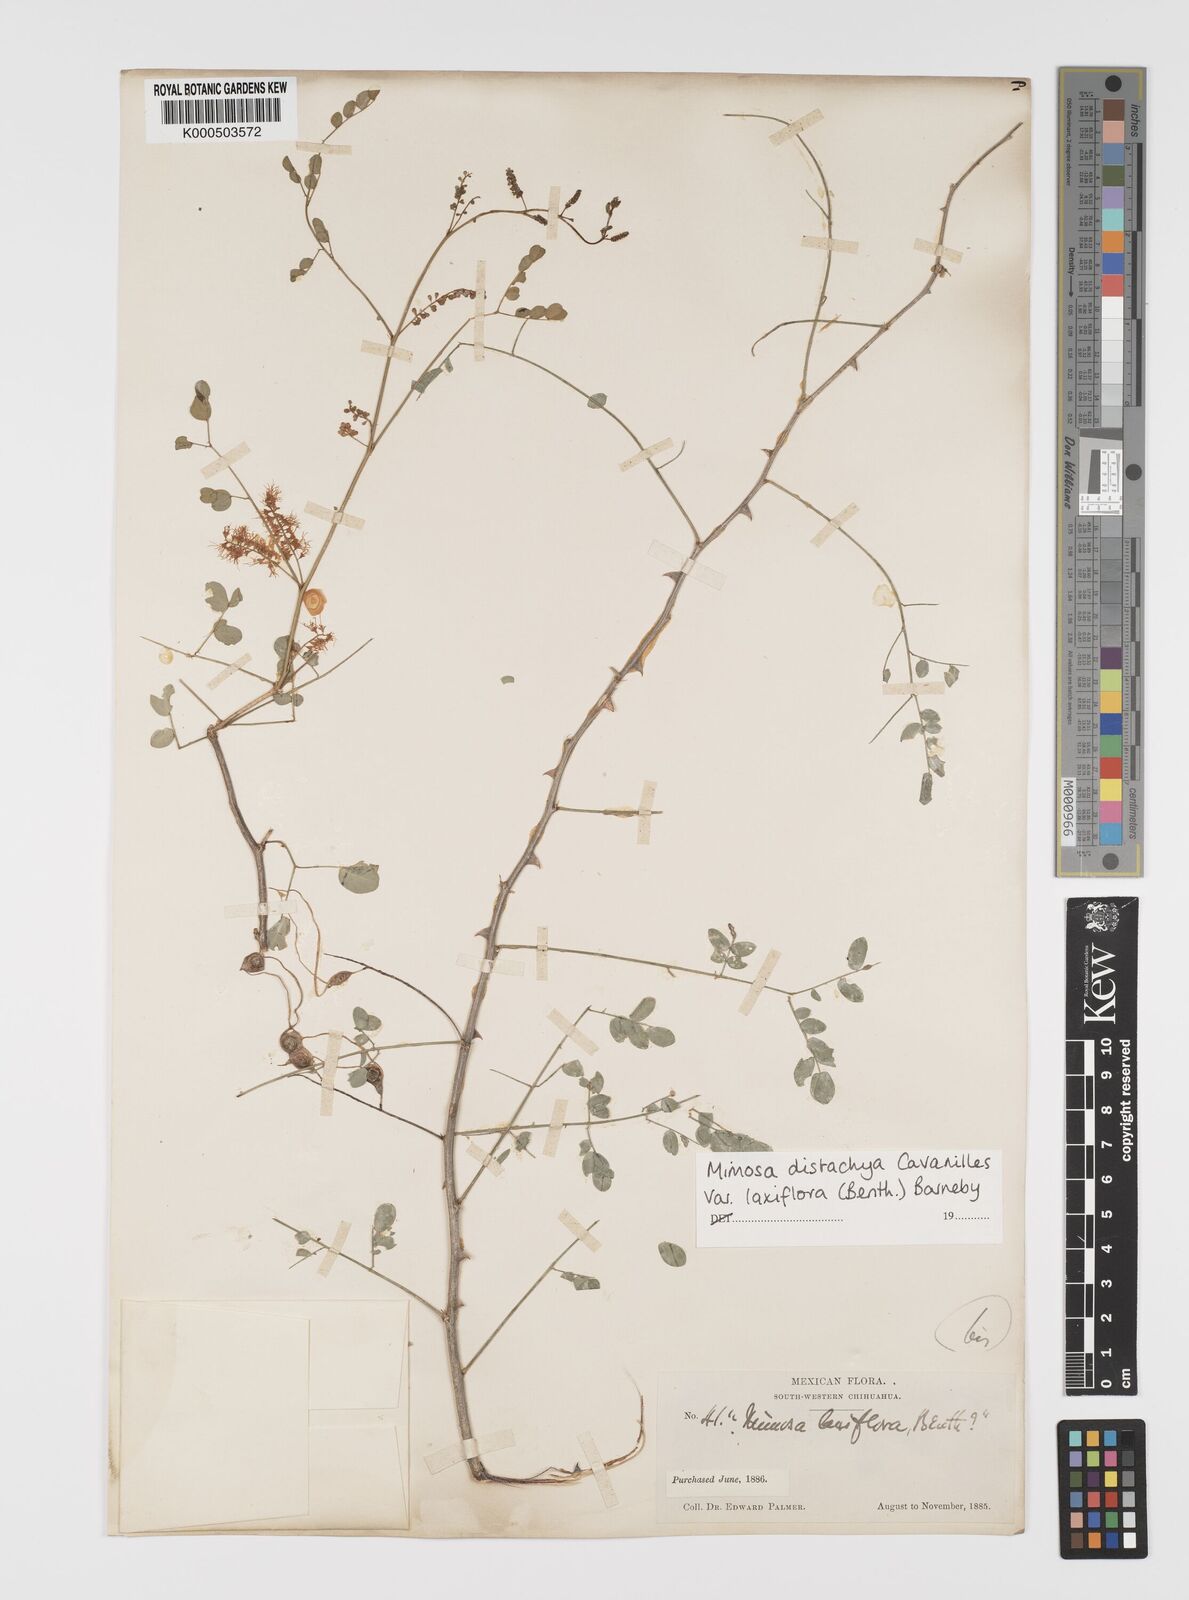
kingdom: Plantae
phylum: Tracheophyta
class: Magnoliopsida
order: Fabales
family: Fabaceae
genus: Mimosa
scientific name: Mimosa distachya
